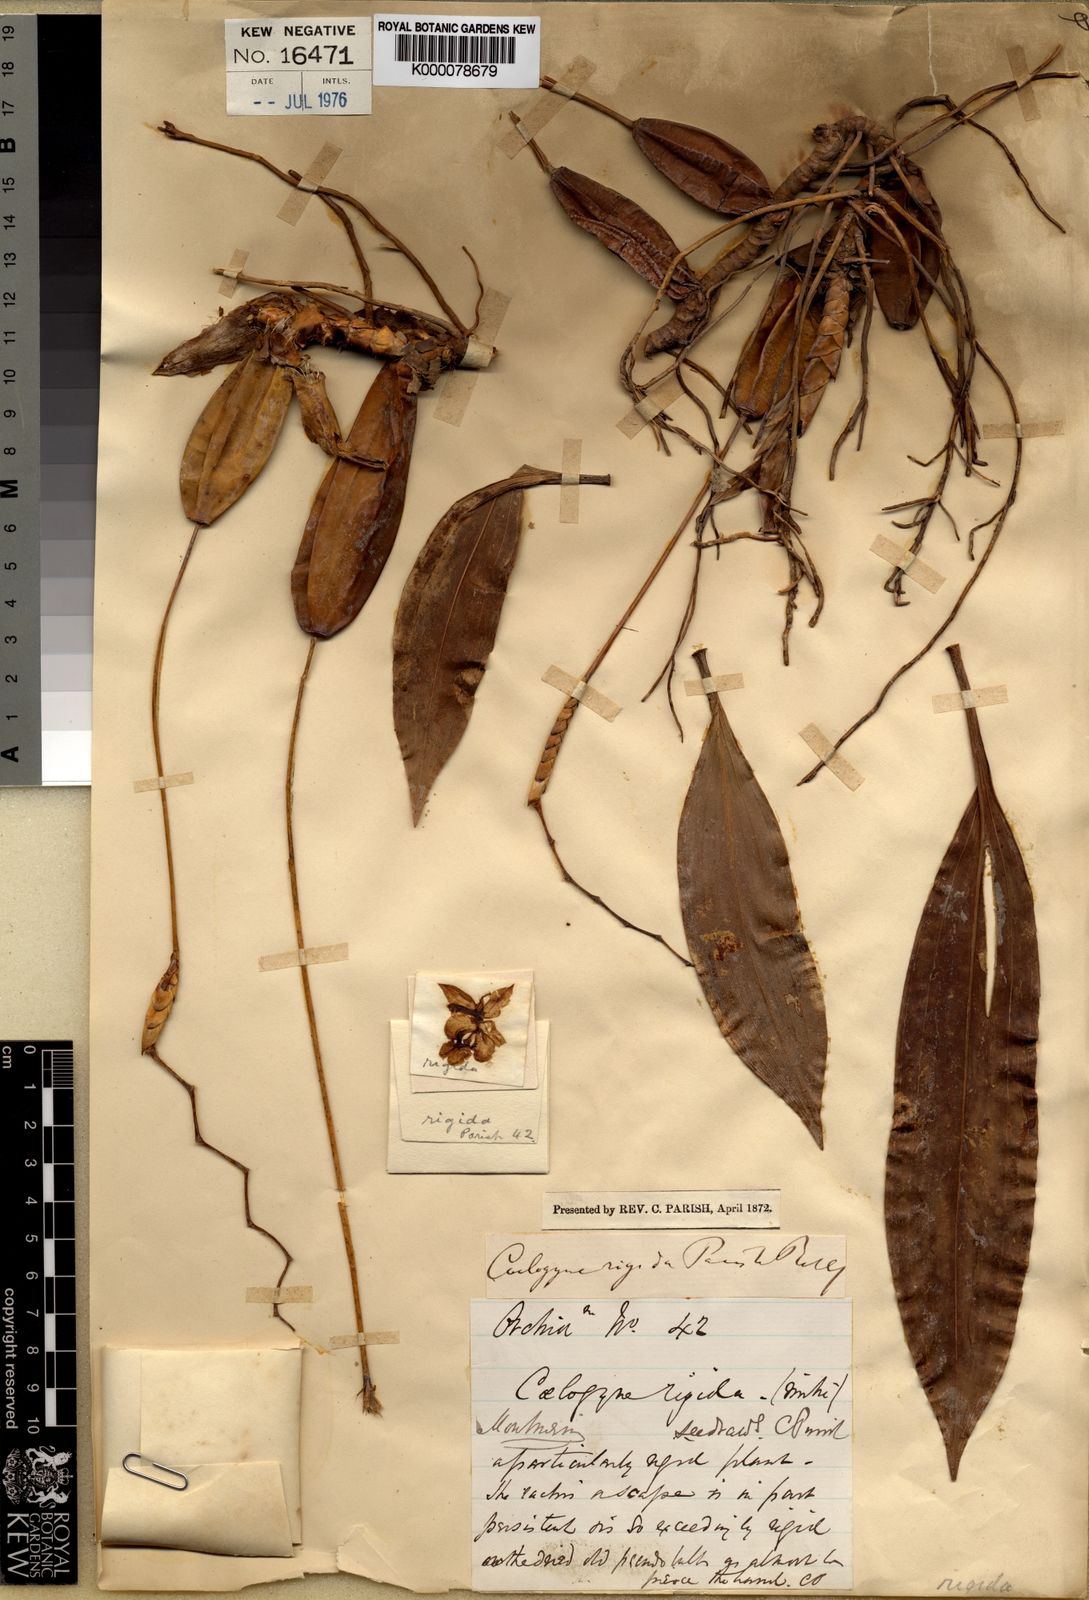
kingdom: Plantae
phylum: Tracheophyta
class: Liliopsida
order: Asparagales
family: Orchidaceae
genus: Coelogyne
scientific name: Coelogyne rigida
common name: Rigid coelogyne
